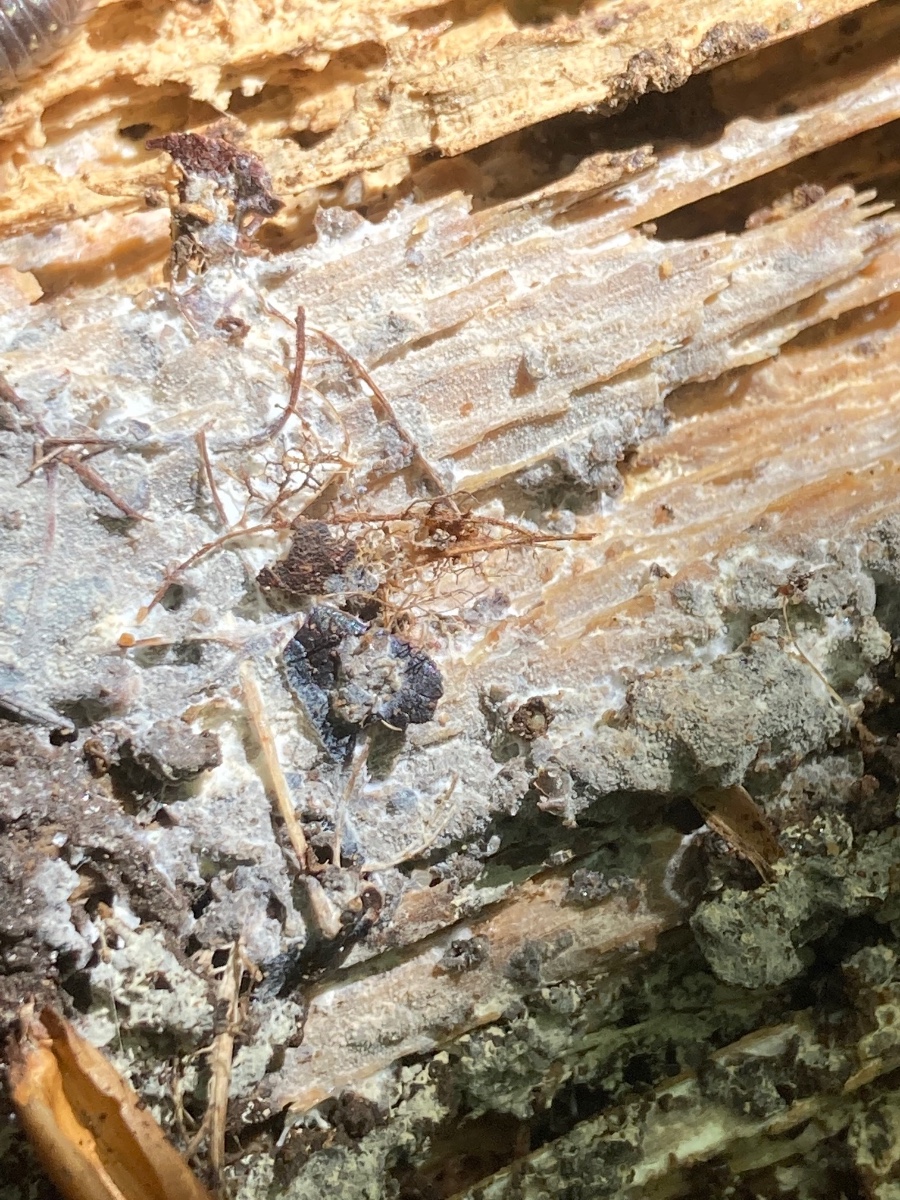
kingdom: Fungi
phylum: Basidiomycota
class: Agaricomycetes
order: Hymenochaetales
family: Rickenellaceae
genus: Resinicium
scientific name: Resinicium bicolor
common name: almindelig vokstand
